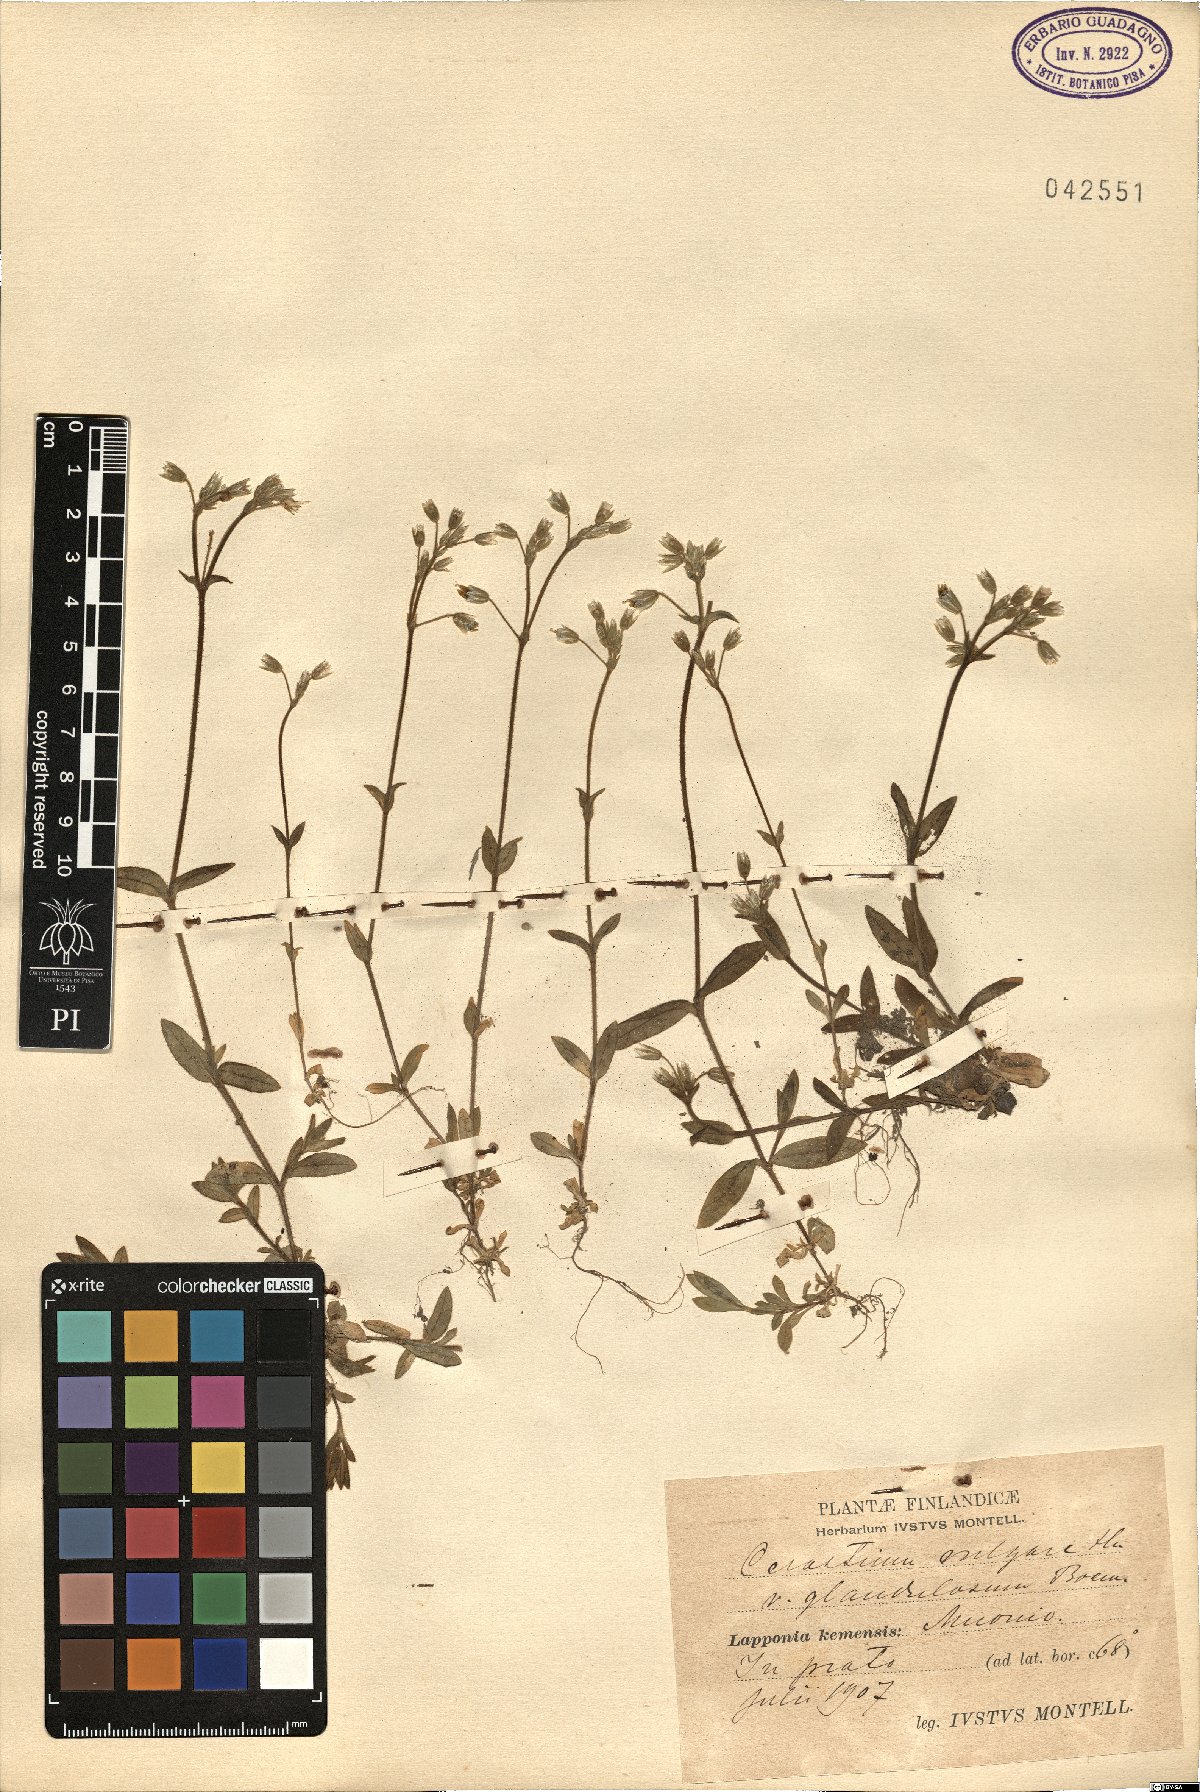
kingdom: Plantae
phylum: Tracheophyta
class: Magnoliopsida
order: Caryophyllales
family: Caryophyllaceae
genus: Cerastium
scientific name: Cerastium holosteoides
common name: Big chickweed
